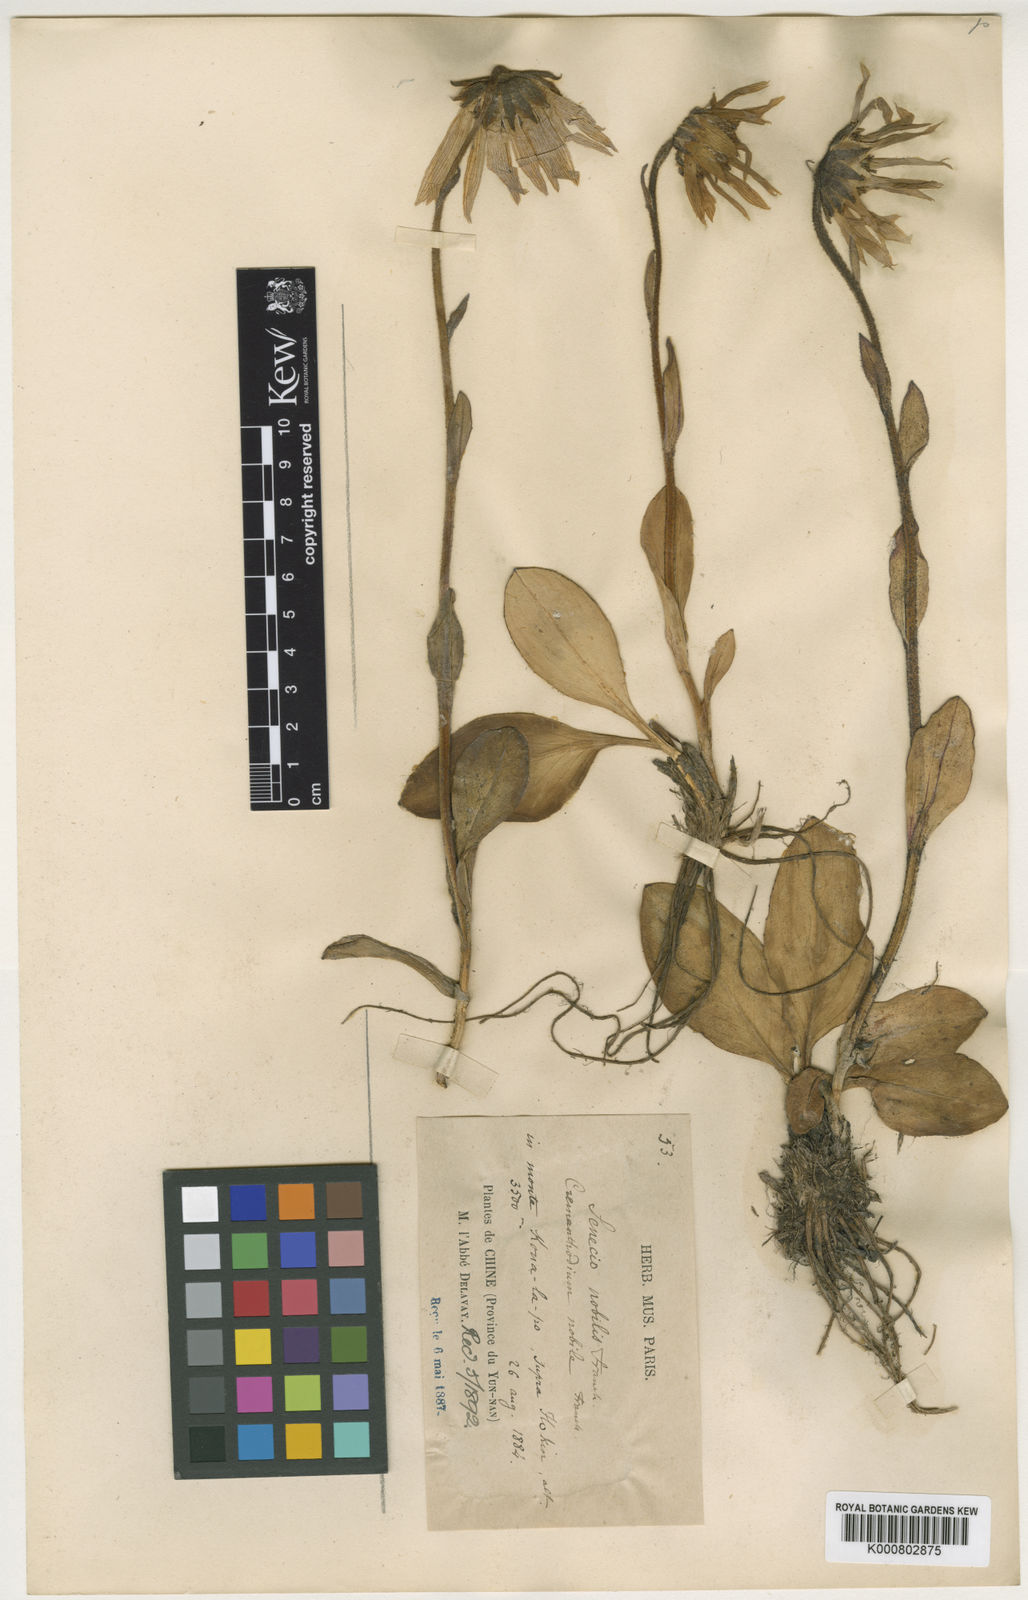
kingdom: Plantae
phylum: Tracheophyta
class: Magnoliopsida
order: Asterales
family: Asteraceae
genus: Cremanthodium
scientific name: Cremanthodium
